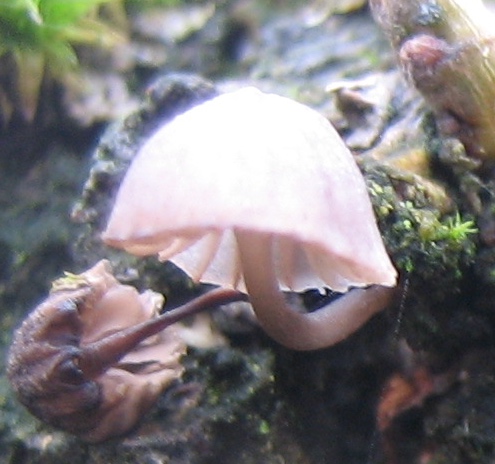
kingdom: Fungi
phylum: Basidiomycota
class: Agaricomycetes
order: Agaricales
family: Mycenaceae
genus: Mycena
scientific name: Mycena pseudocorticola
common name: gråblå bark-huesvamp
